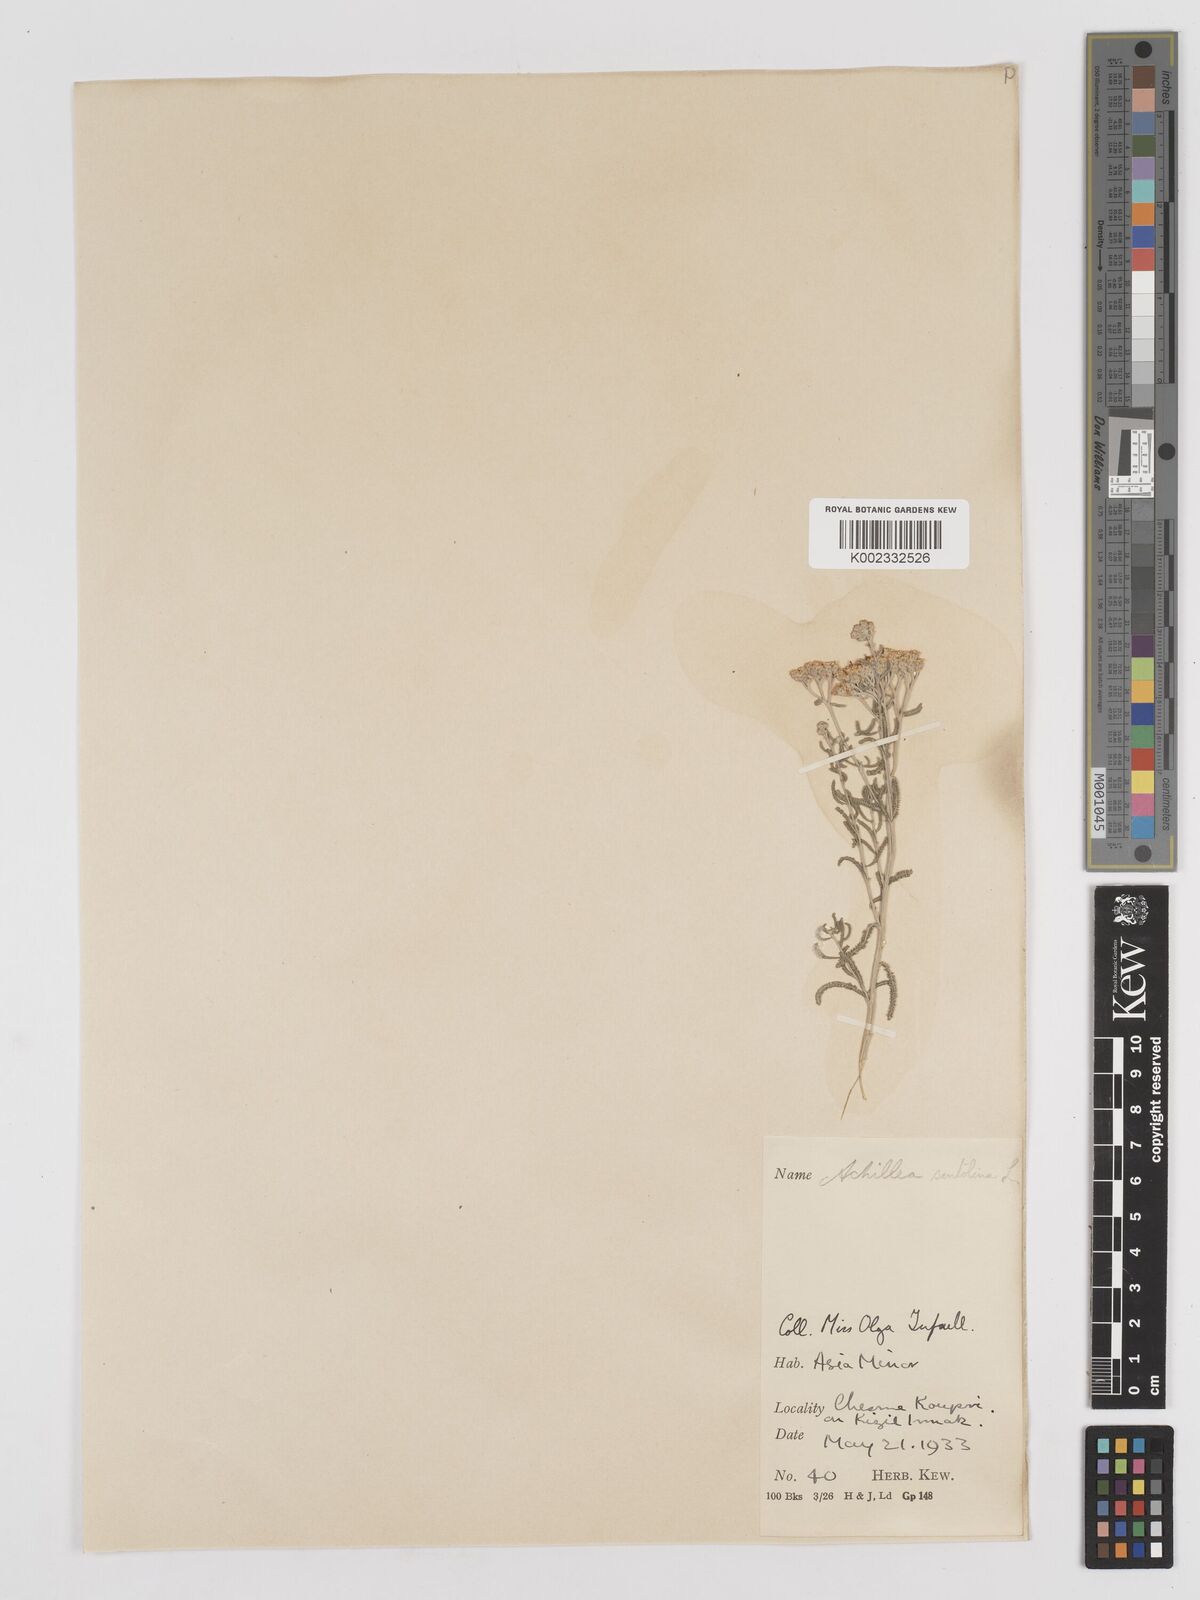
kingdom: Plantae
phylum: Tracheophyta
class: Magnoliopsida
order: Asterales
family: Asteraceae
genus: Achillea
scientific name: Achillea tenuifolia
